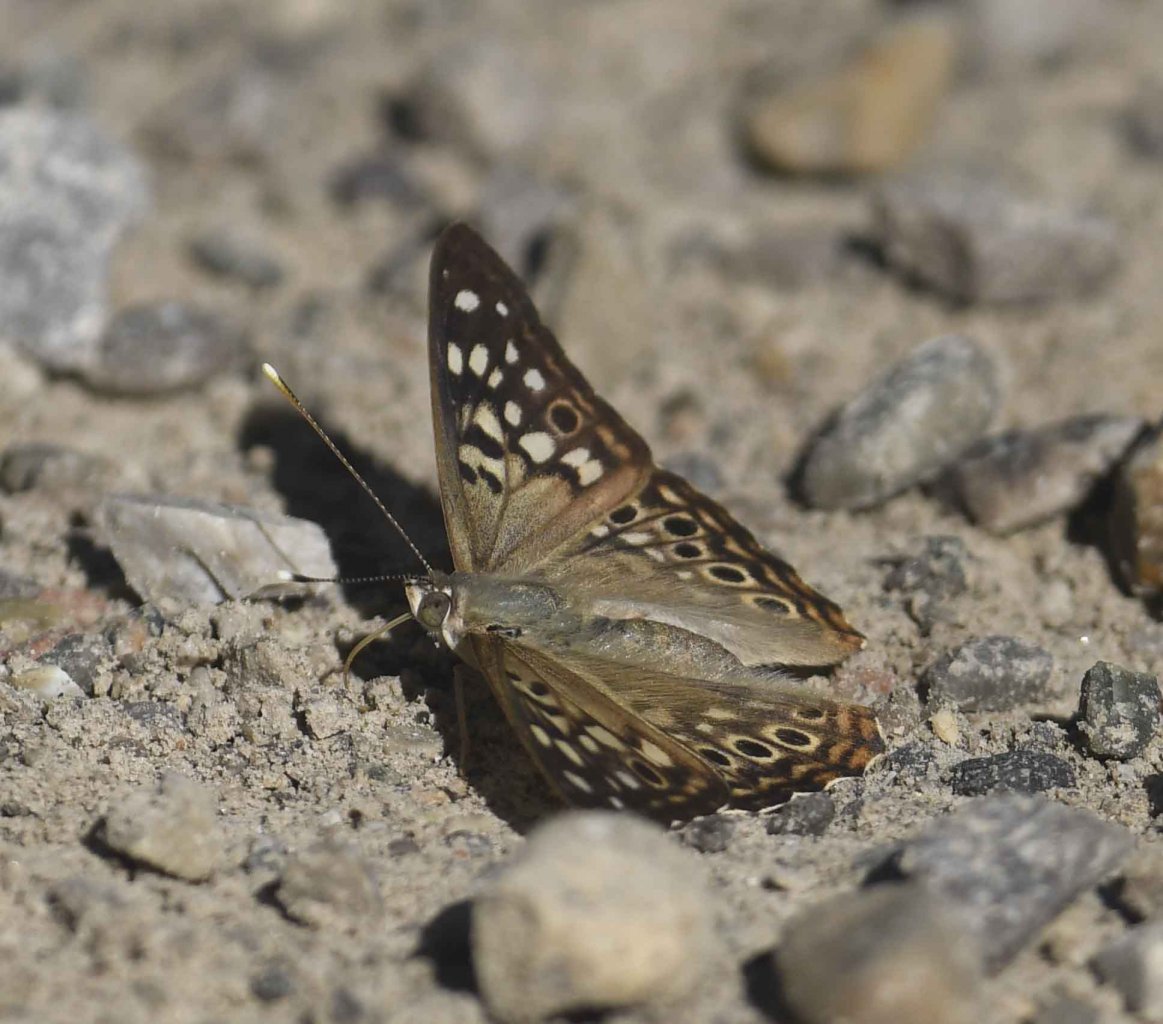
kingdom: Animalia
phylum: Arthropoda
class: Insecta
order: Lepidoptera
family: Nymphalidae
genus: Asterocampa
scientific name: Asterocampa celtis
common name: Hackberry Emperor
